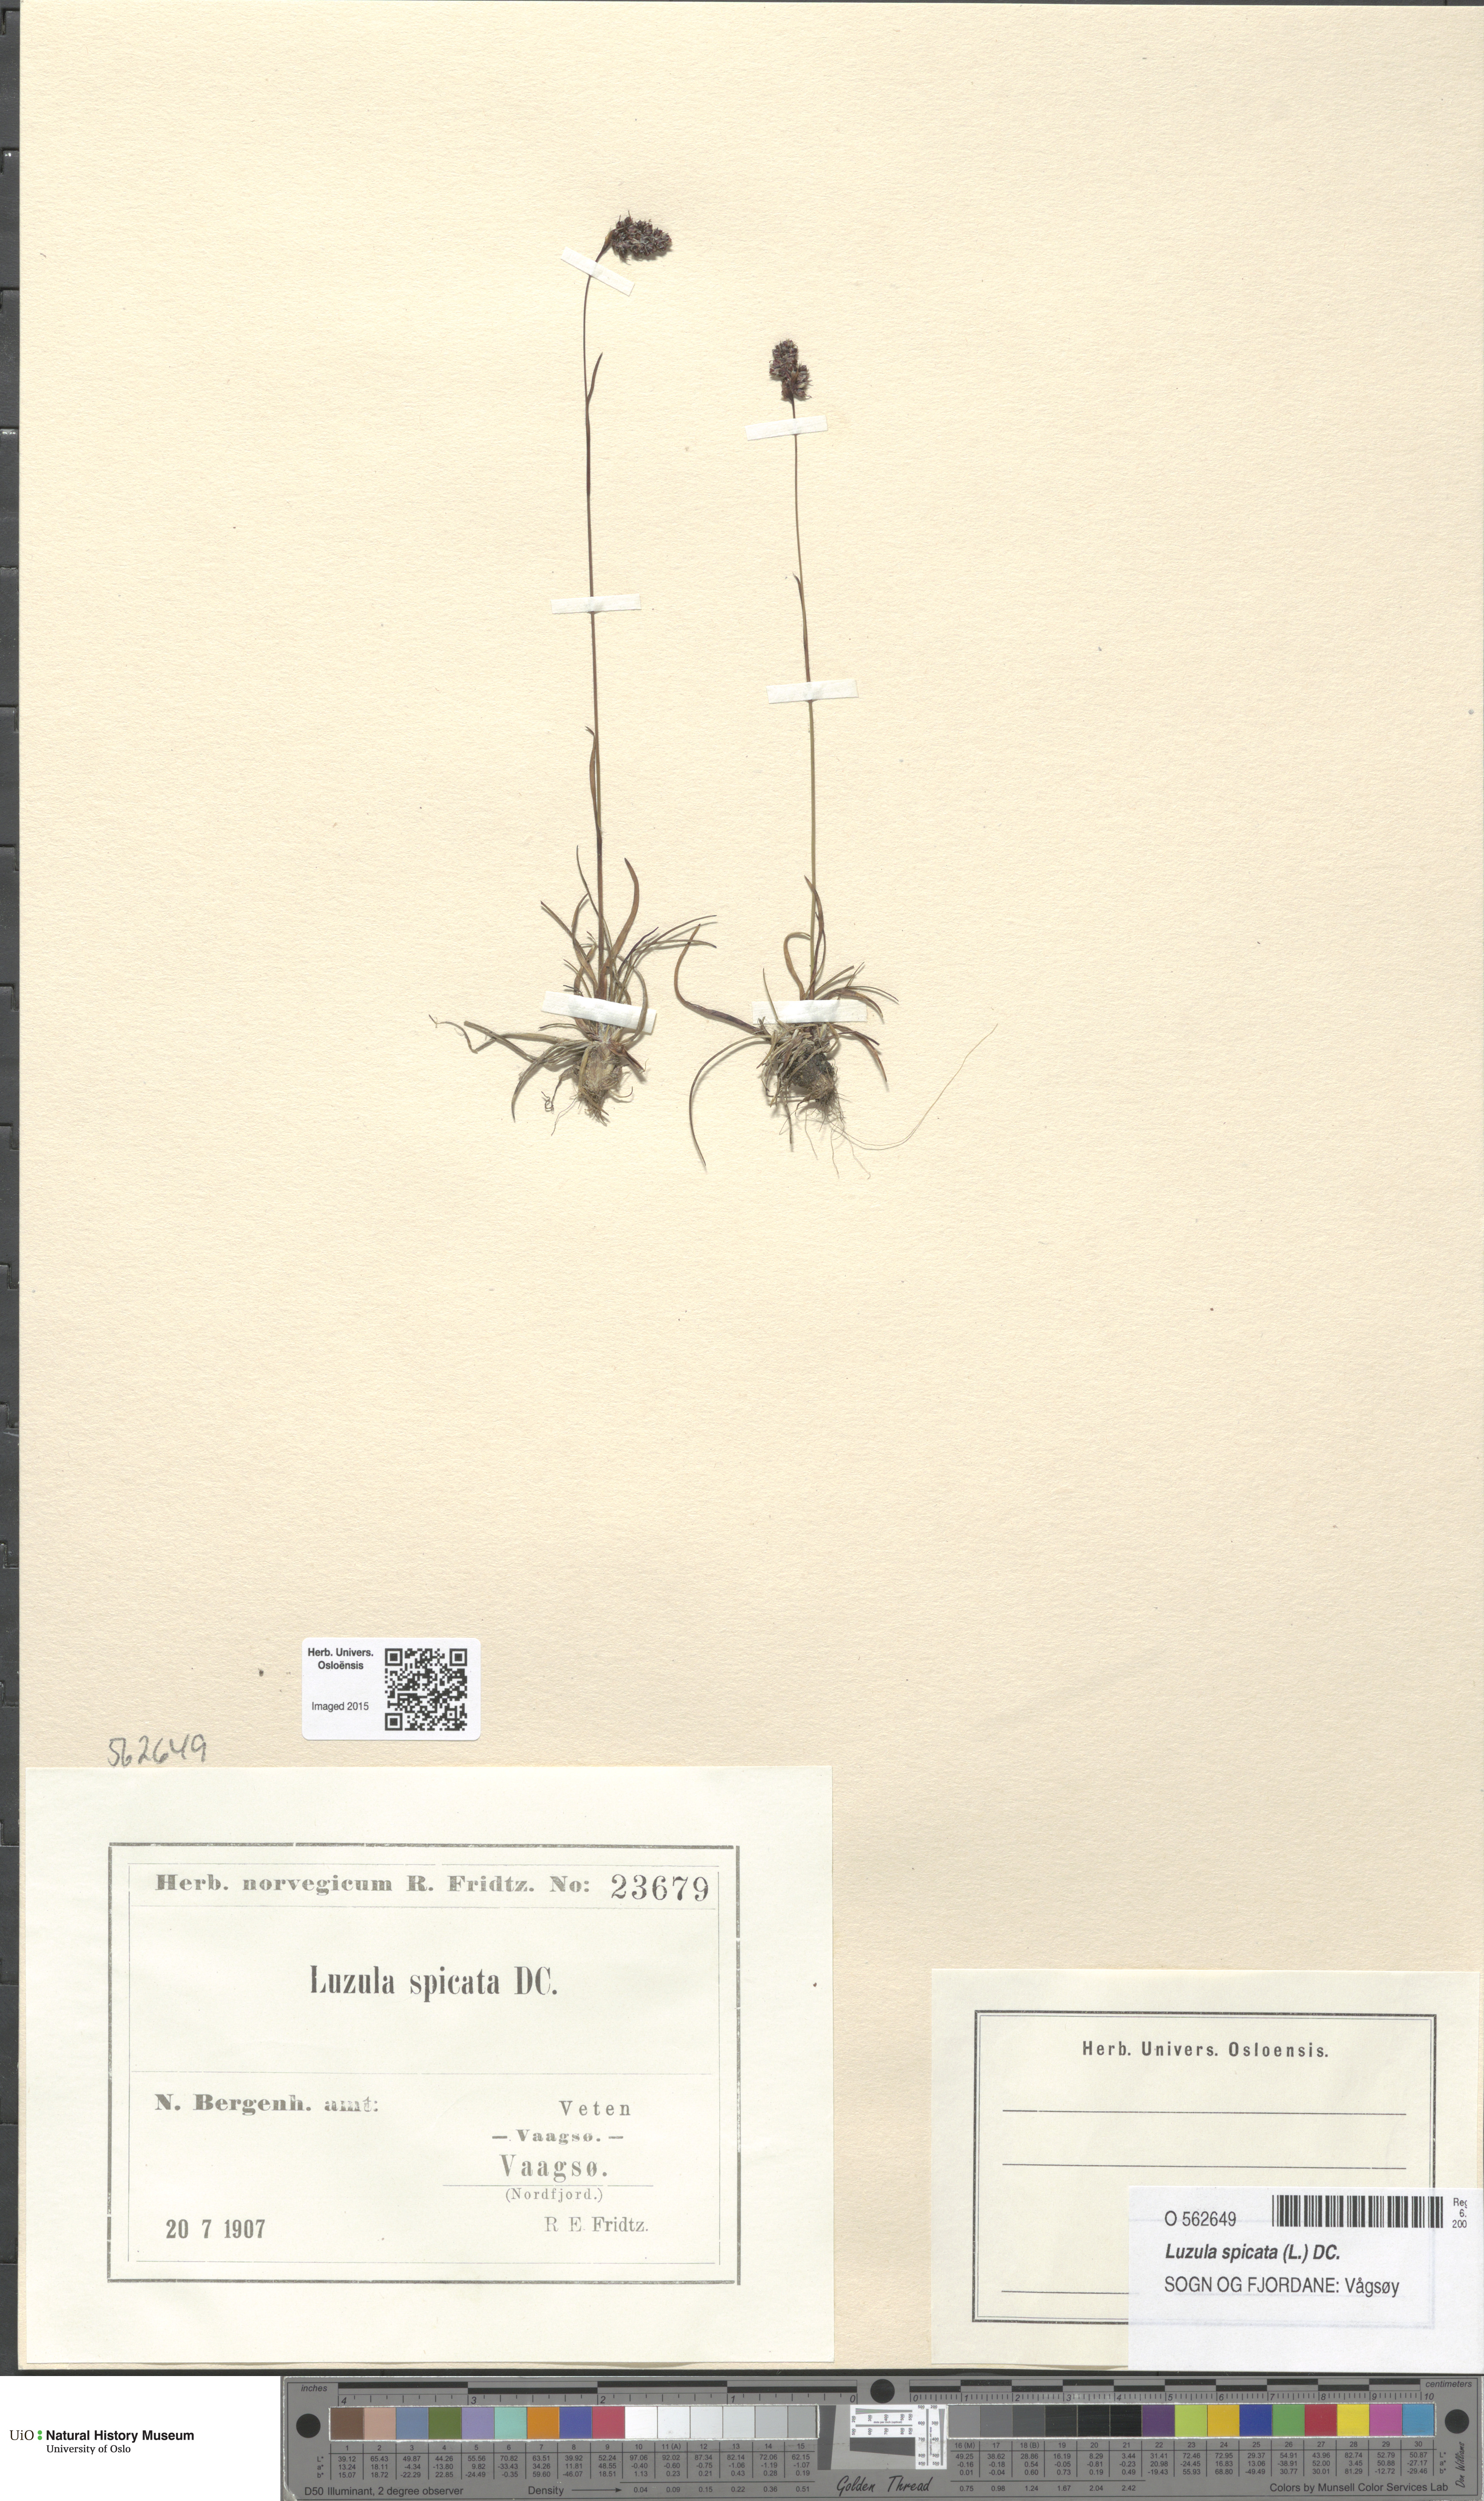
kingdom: Plantae
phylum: Tracheophyta
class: Liliopsida
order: Poales
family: Juncaceae
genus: Luzula
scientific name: Luzula spicata
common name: Spiked wood-rush
